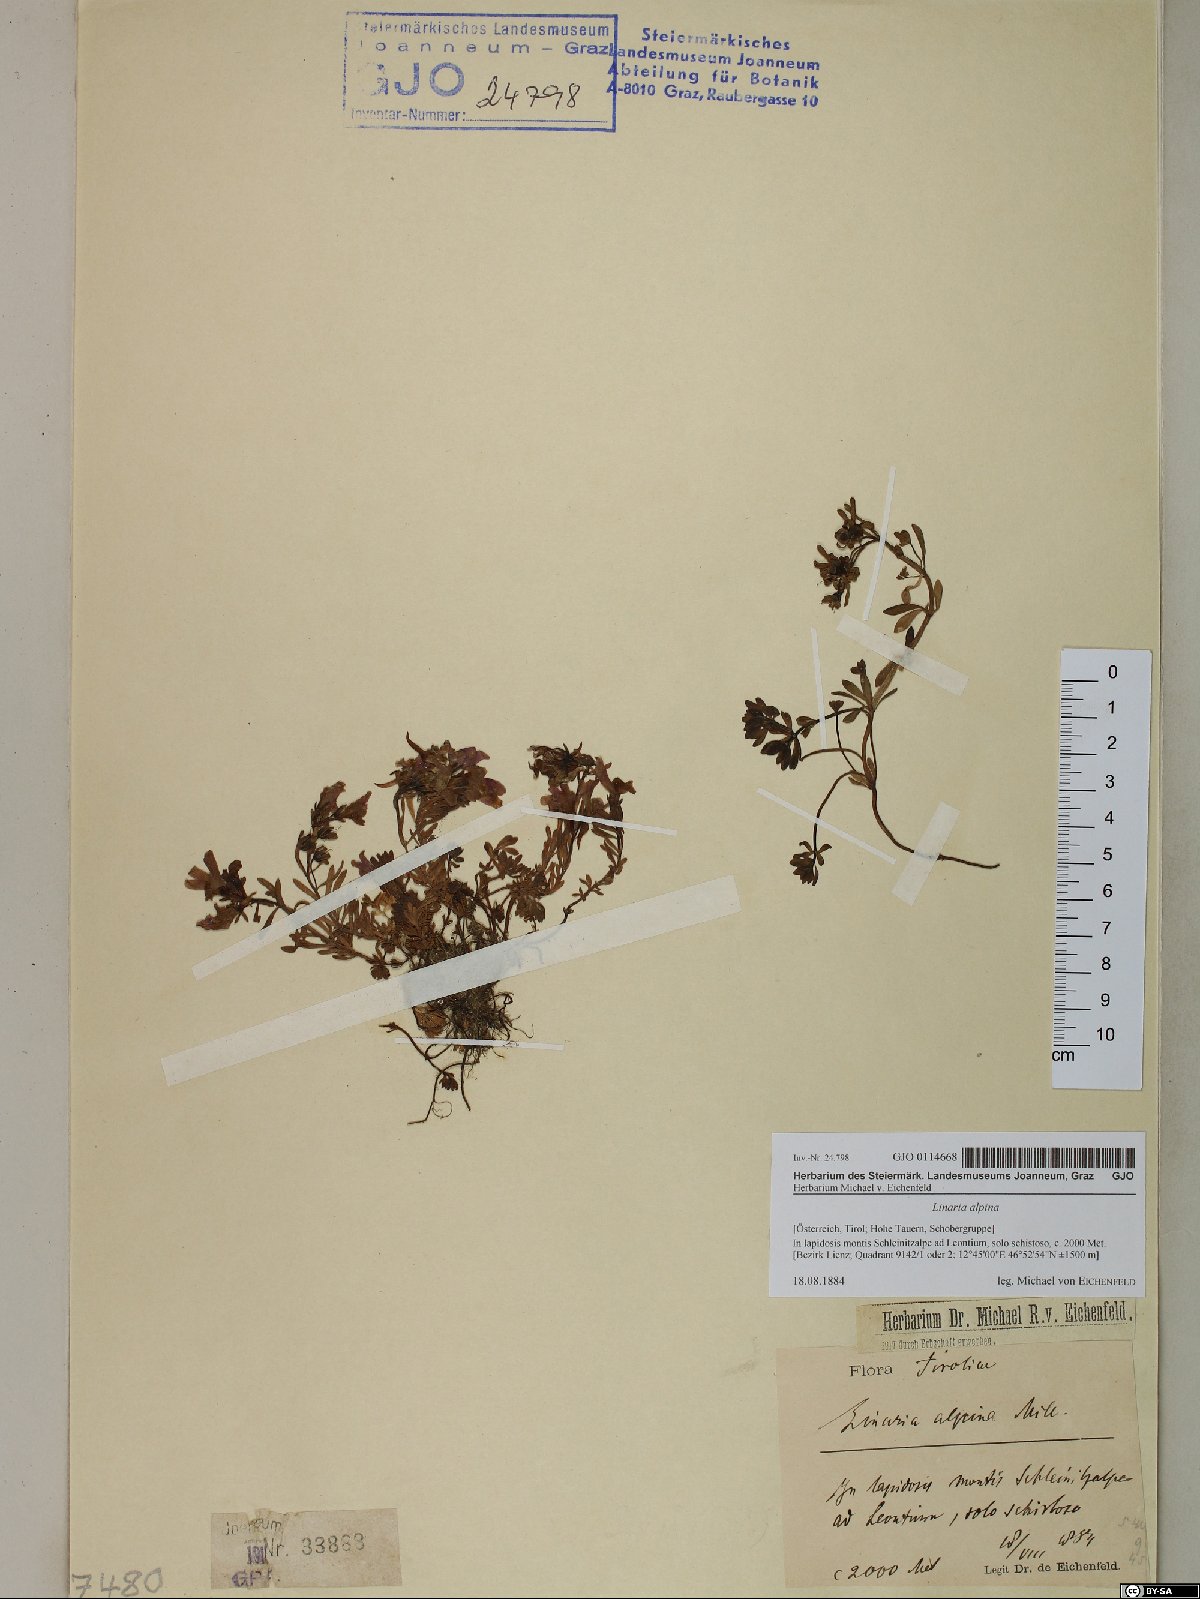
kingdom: Plantae
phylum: Tracheophyta
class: Magnoliopsida
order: Lamiales
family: Plantaginaceae
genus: Linaria
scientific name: Linaria alpina
